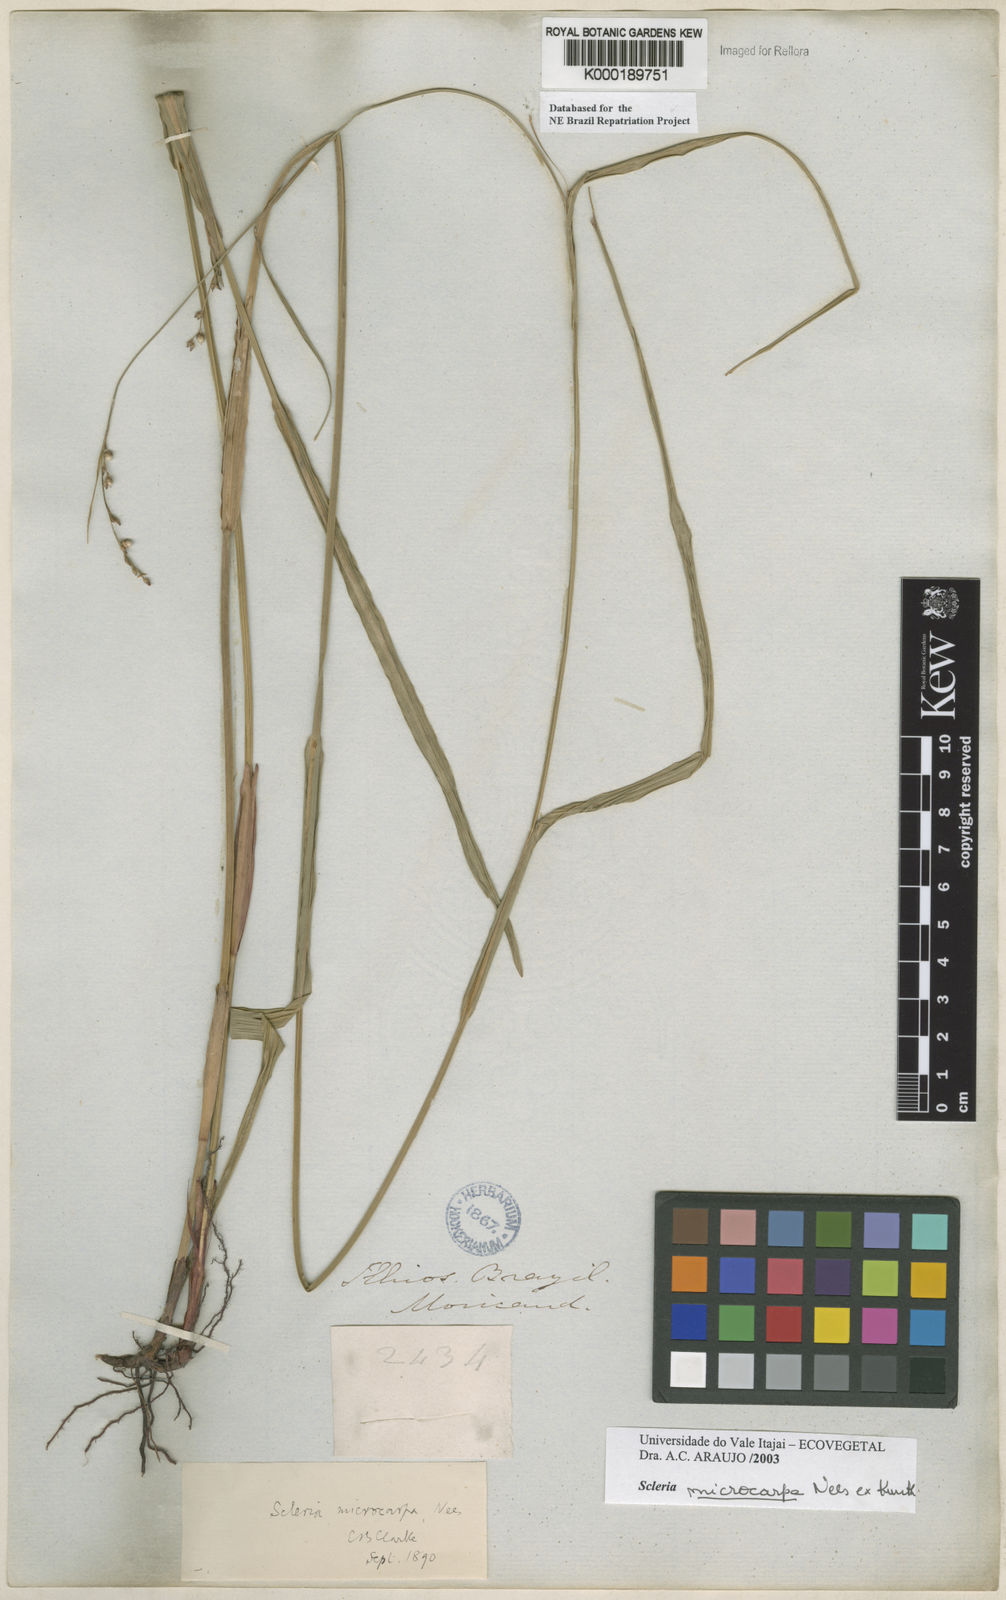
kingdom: Plantae
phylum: Tracheophyta
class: Liliopsida
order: Poales
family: Cyperaceae
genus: Scleria
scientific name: Scleria microcarpa
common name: Tropical nutrush
